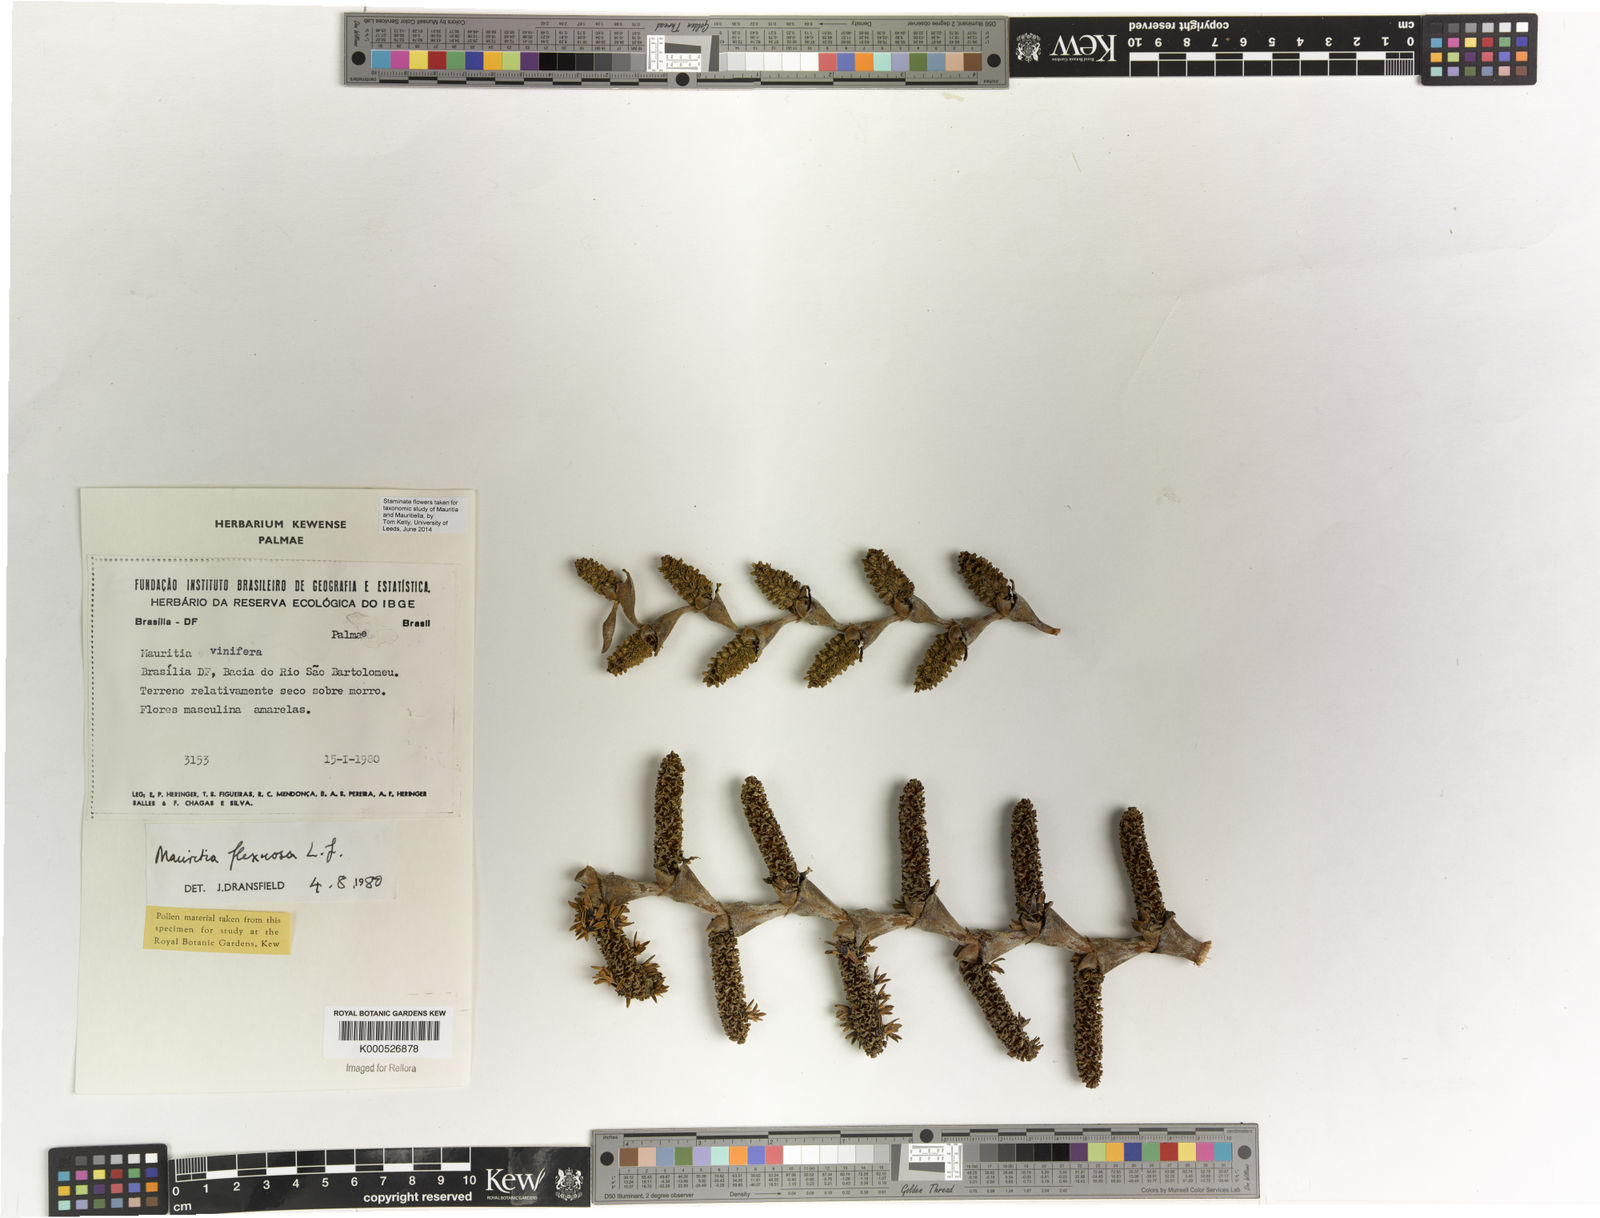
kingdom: Plantae
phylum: Tracheophyta
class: Liliopsida
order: Arecales
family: Arecaceae
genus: Mauritia
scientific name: Mauritia flexuosa
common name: Tree-of-life
